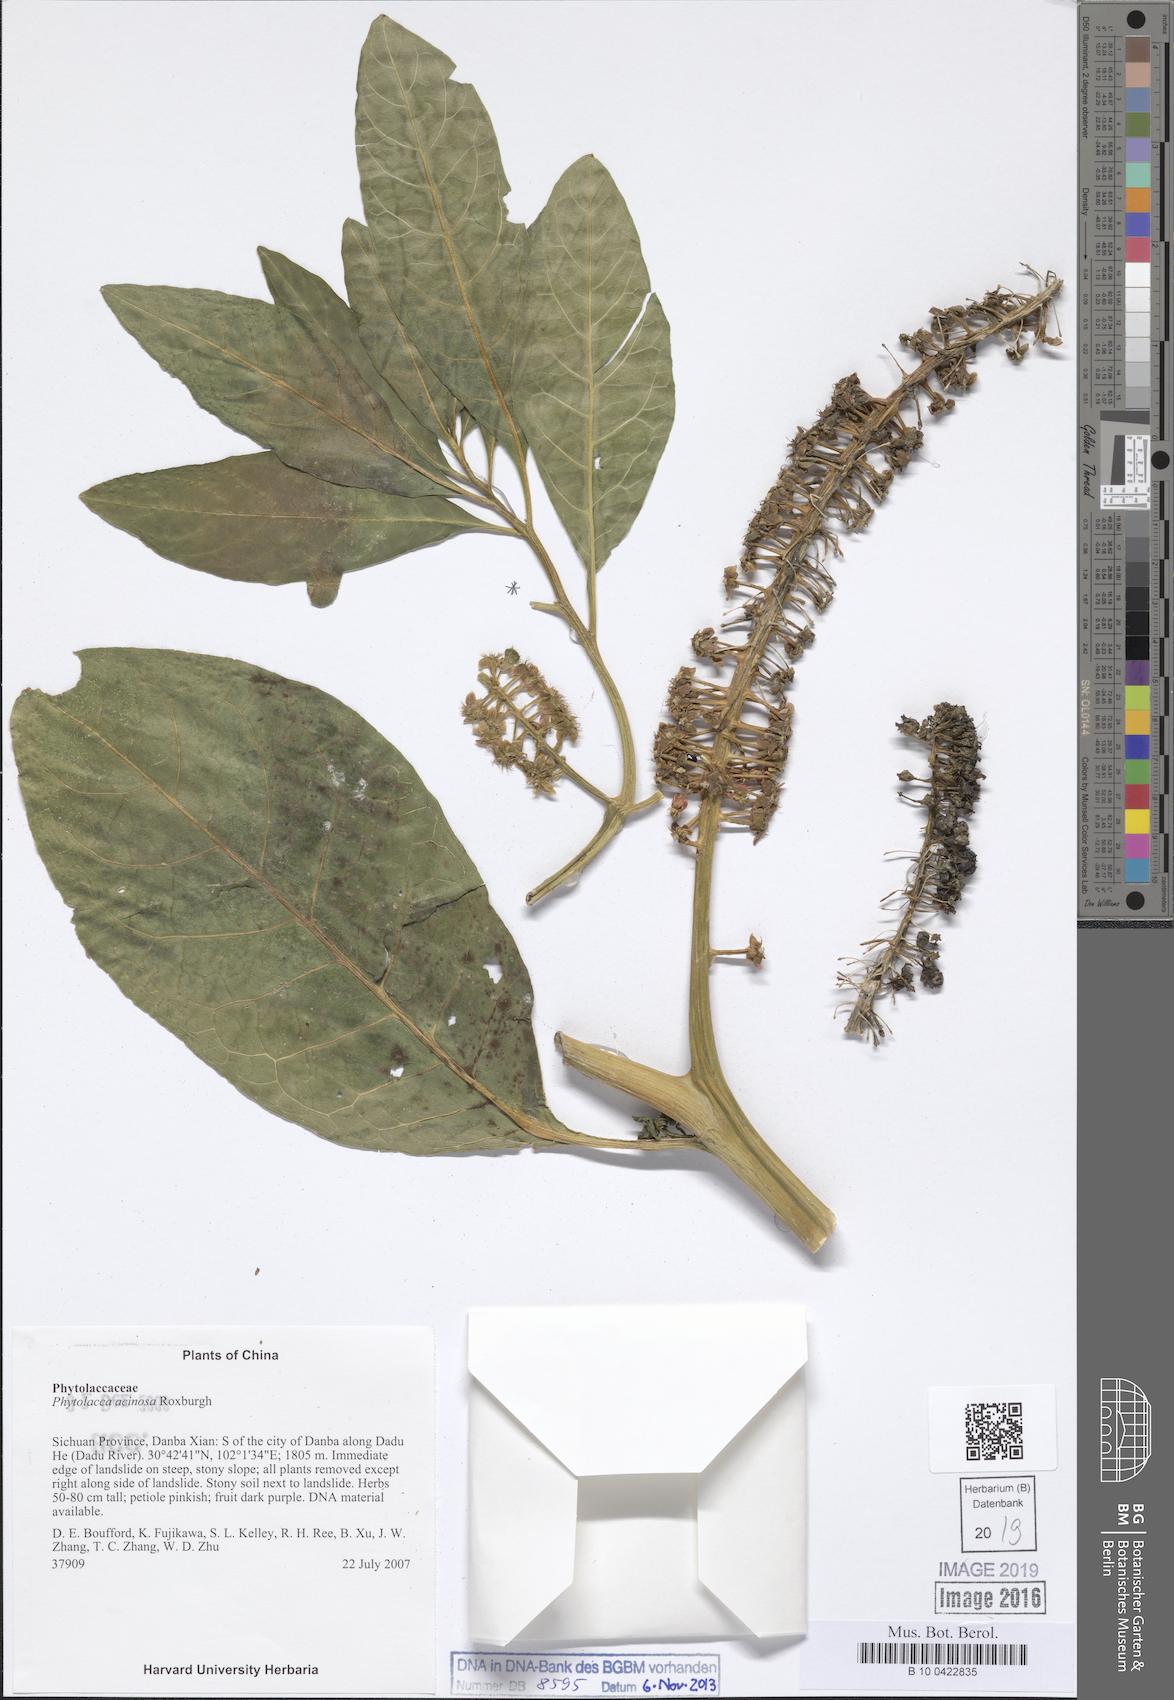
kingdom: Plantae
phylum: Tracheophyta
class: Magnoliopsida
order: Caryophyllales
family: Phytolaccaceae
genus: Phytolacca
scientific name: Phytolacca acinosa
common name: Indian pokeweed
